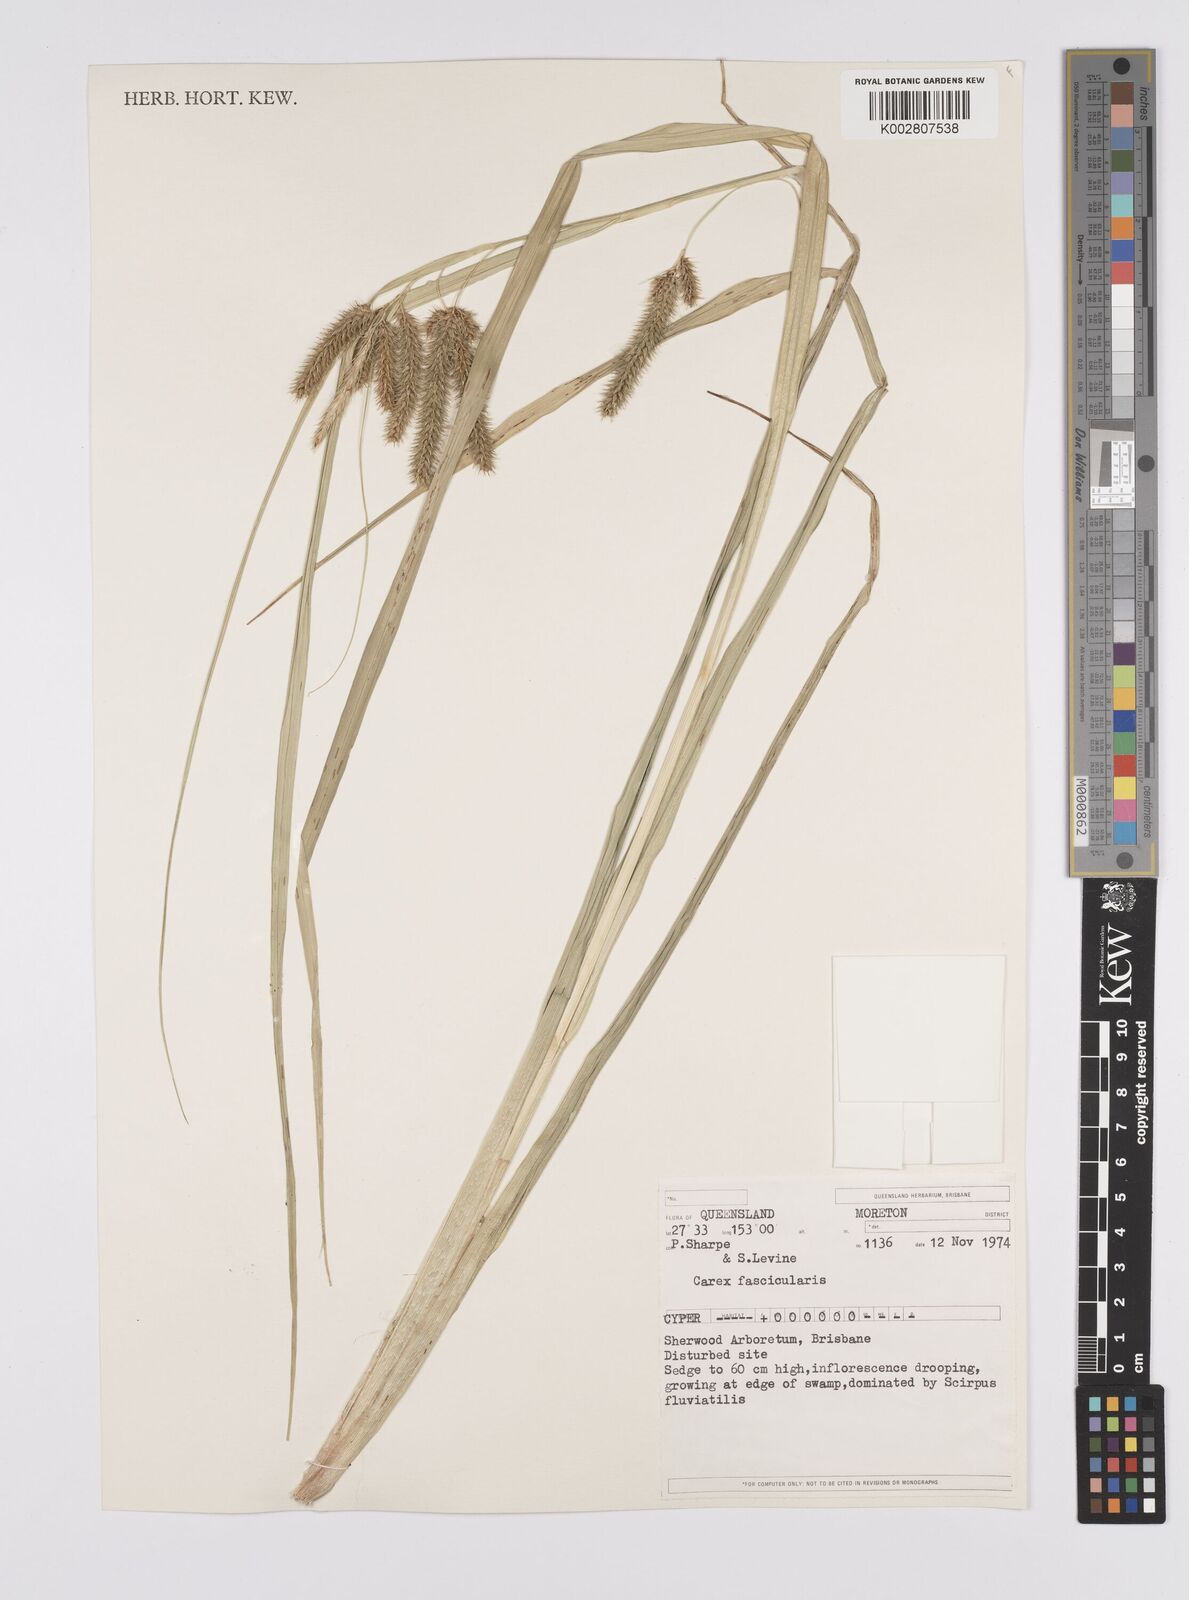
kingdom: Plantae
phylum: Tracheophyta
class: Liliopsida
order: Poales
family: Cyperaceae
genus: Carex
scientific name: Carex cespitosa
